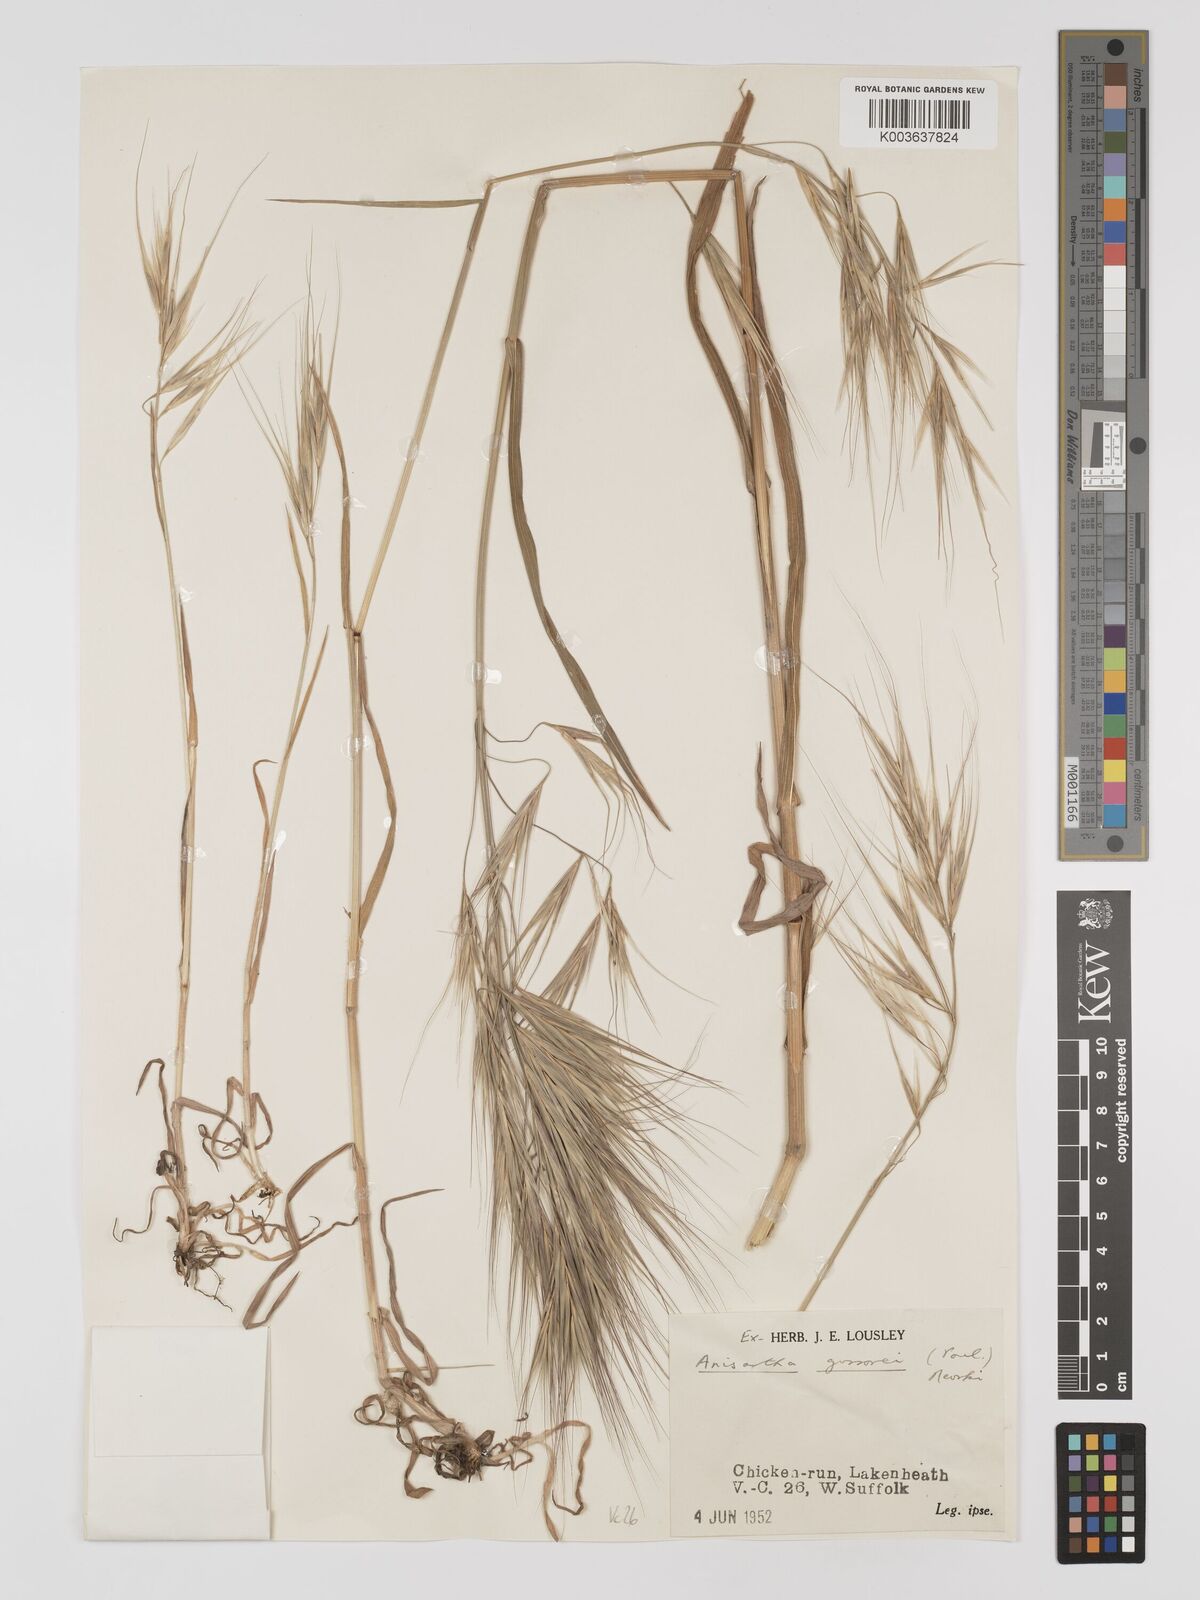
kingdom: Plantae
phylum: Tracheophyta
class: Liliopsida
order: Poales
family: Poaceae
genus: Bromus
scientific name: Bromus
